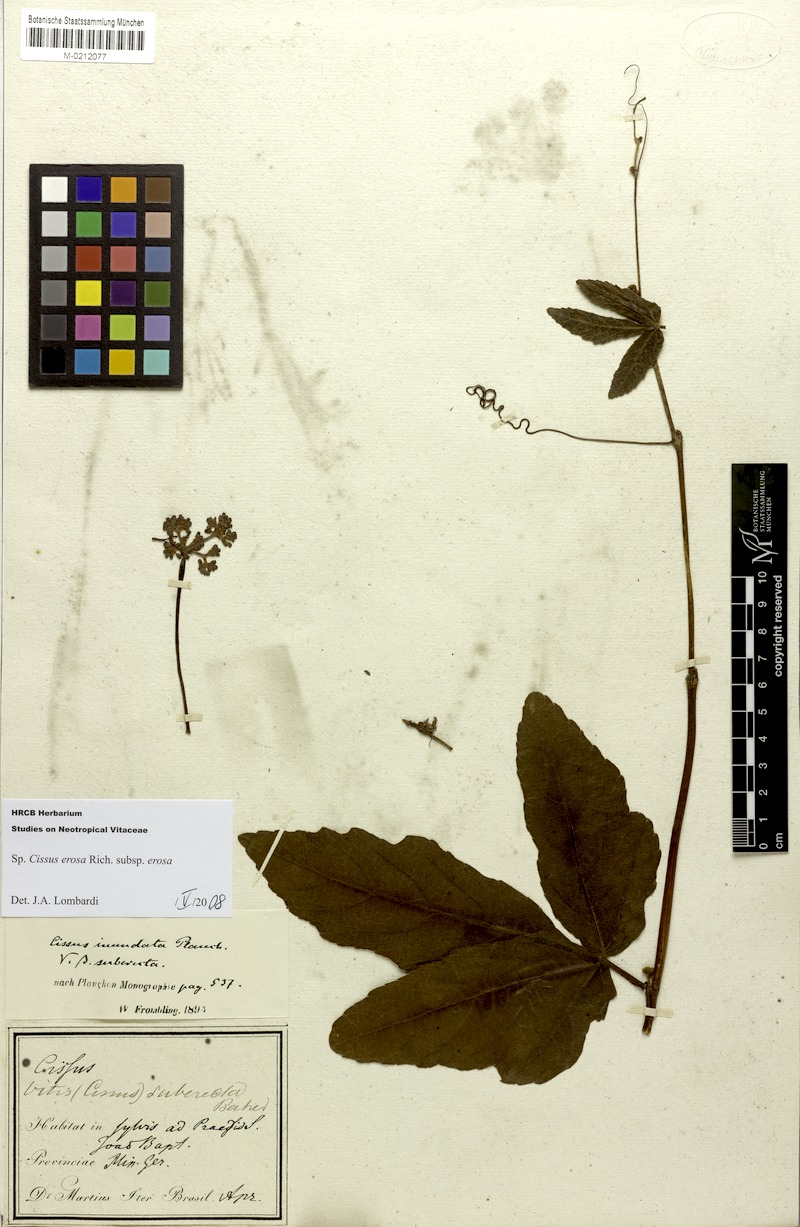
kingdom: Plantae
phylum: Tracheophyta
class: Magnoliopsida
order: Vitales
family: Vitaceae
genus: Cissus
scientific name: Cissus erosa
